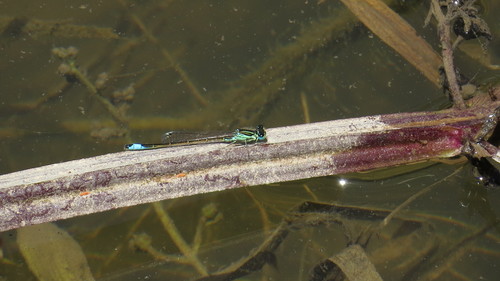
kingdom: Animalia
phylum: Arthropoda
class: Insecta
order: Odonata
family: Coenagrionidae
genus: Ischnura
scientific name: Ischnura graellsii
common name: Iberian bluetail
